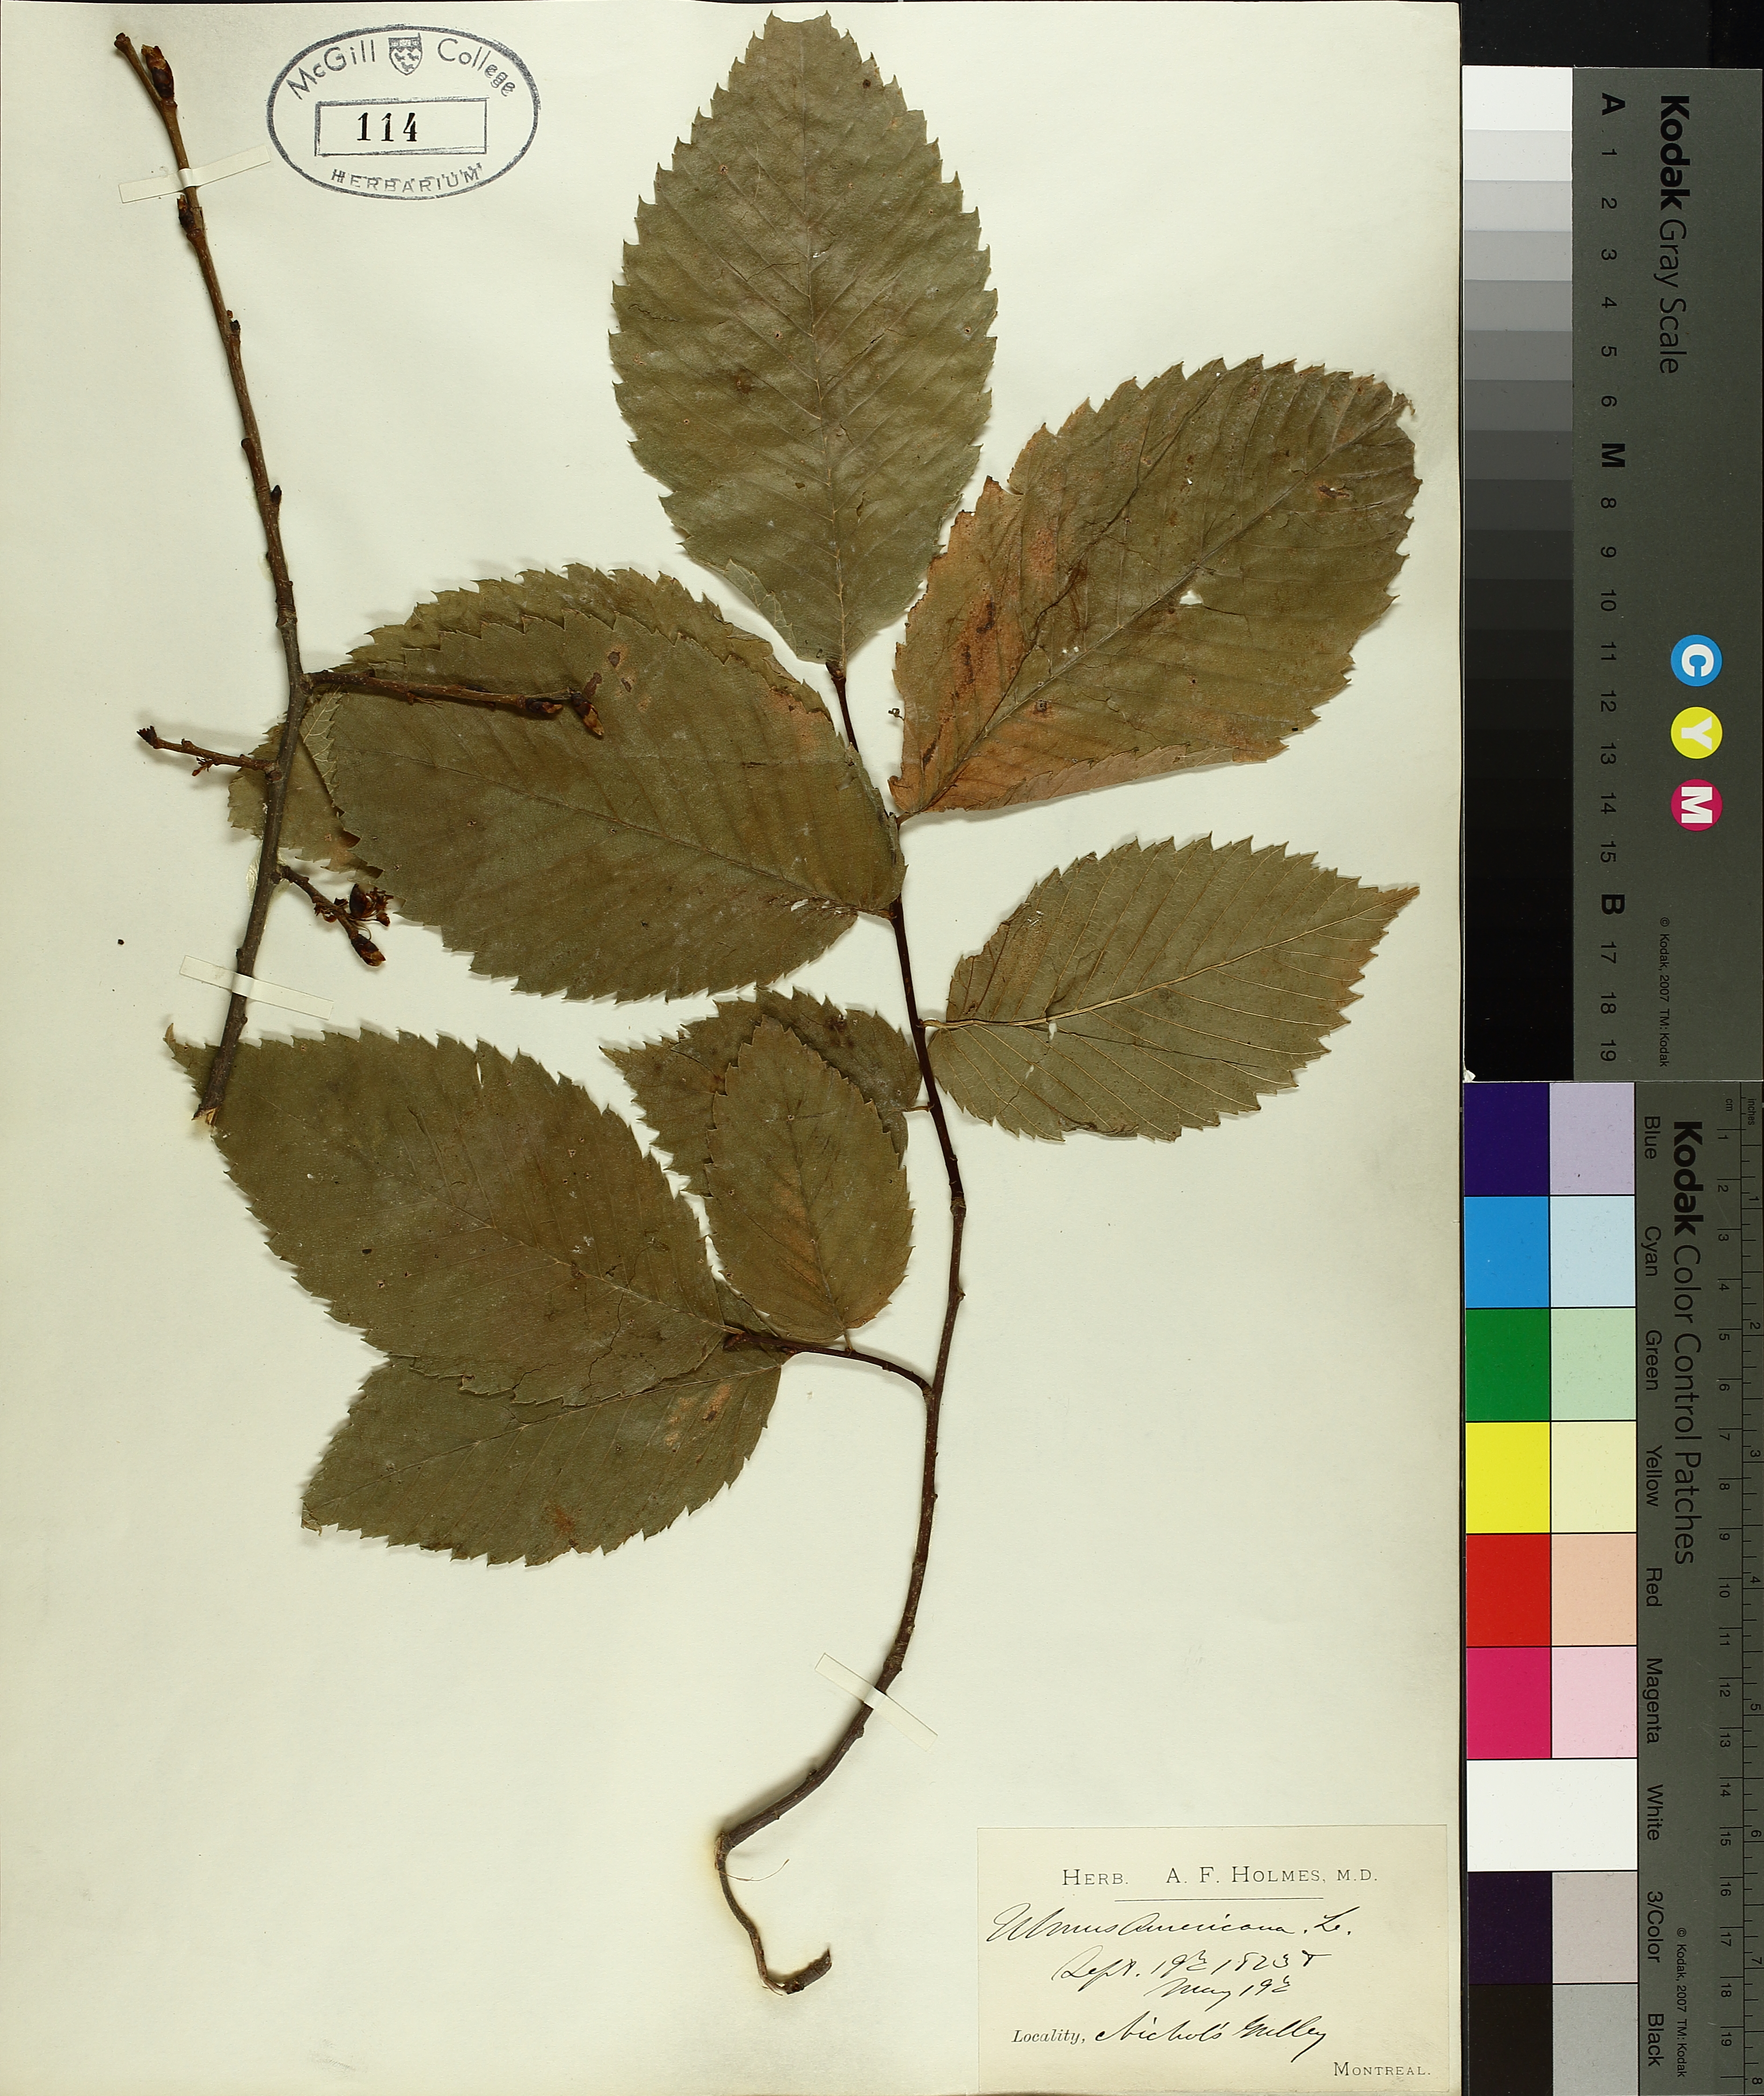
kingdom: Plantae
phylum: Tracheophyta
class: Magnoliopsida
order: Rosales
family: Ulmaceae
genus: Ulmus
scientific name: Ulmus americana
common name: American elm
